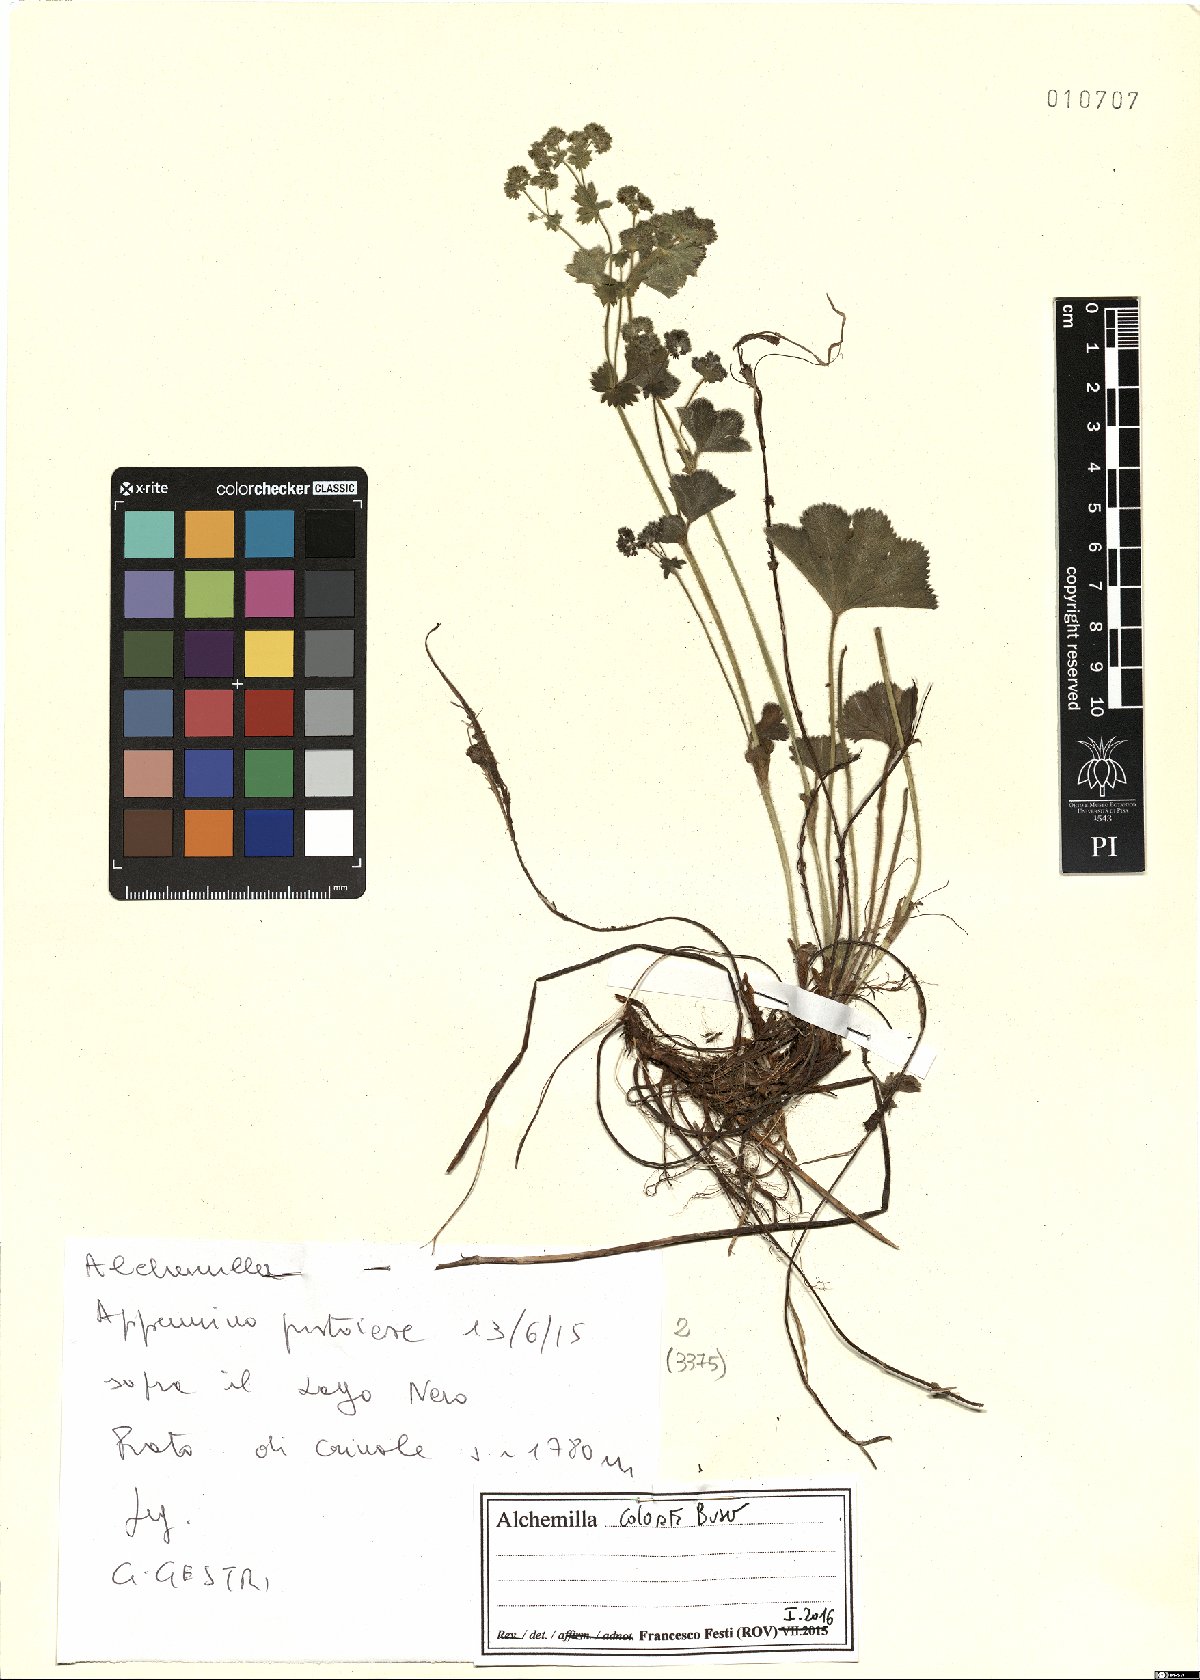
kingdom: Plantae
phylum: Tracheophyta
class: Magnoliopsida
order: Rosales
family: Rosaceae
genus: Alchemilla
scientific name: Alchemilla colorata
